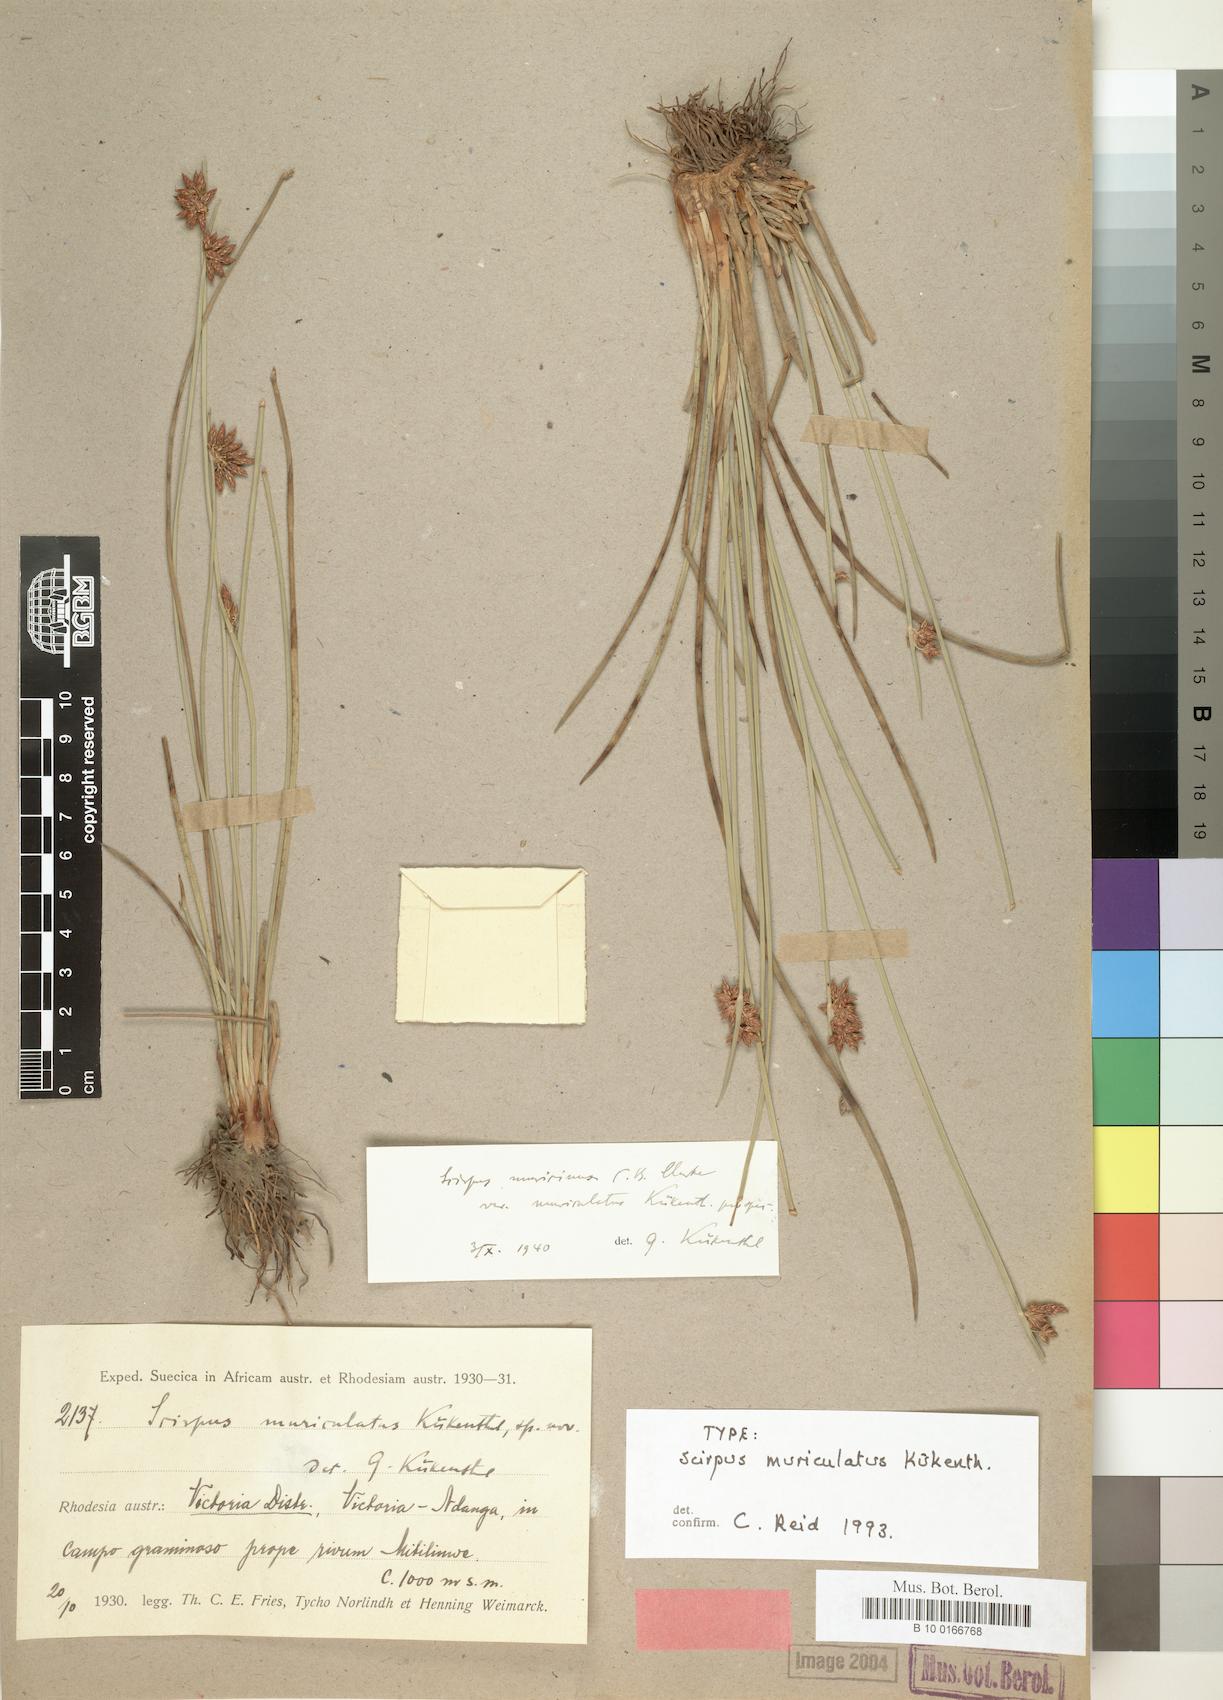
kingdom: Plantae
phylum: Tracheophyta
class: Liliopsida
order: Poales
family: Cyperaceae
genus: Schoenoplectiella
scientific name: Schoenoplectiella muriculata
